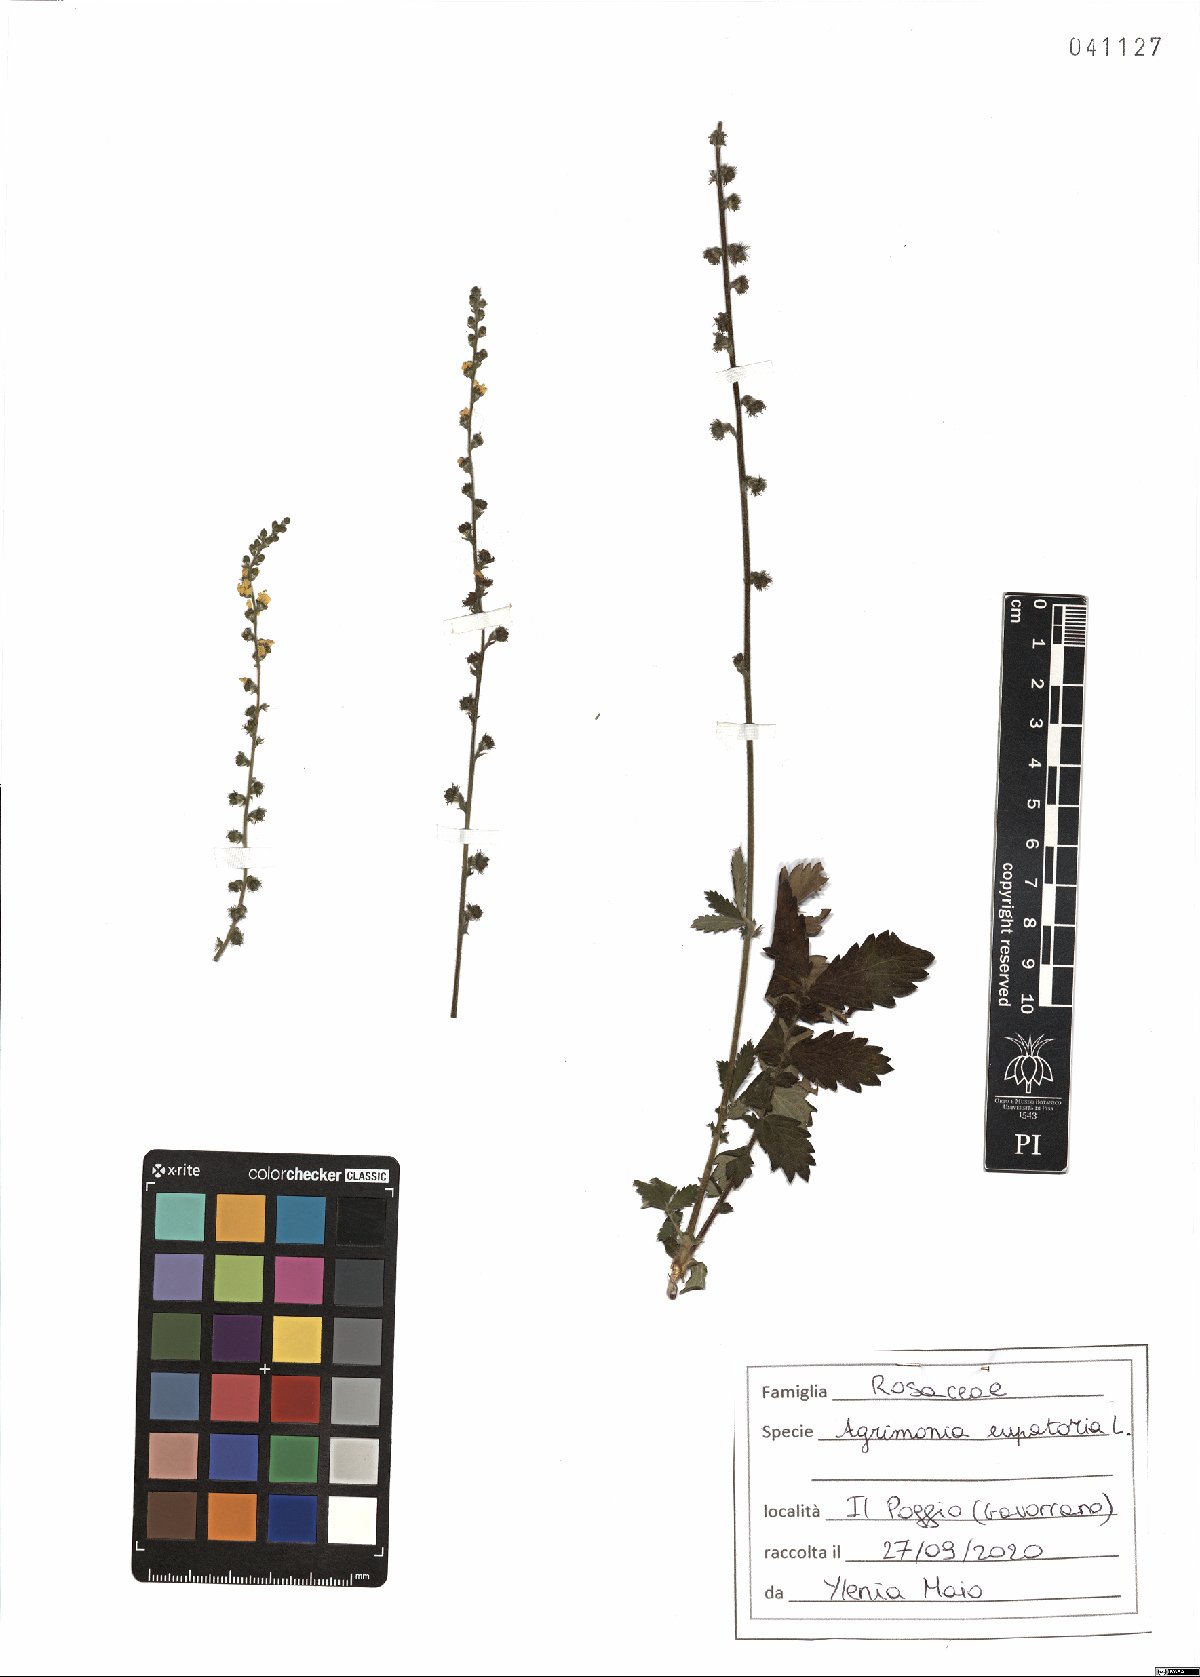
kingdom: Plantae
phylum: Tracheophyta
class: Magnoliopsida
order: Rosales
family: Rosaceae
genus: Agrimonia
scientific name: Agrimonia eupatoria
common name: Agrimony
